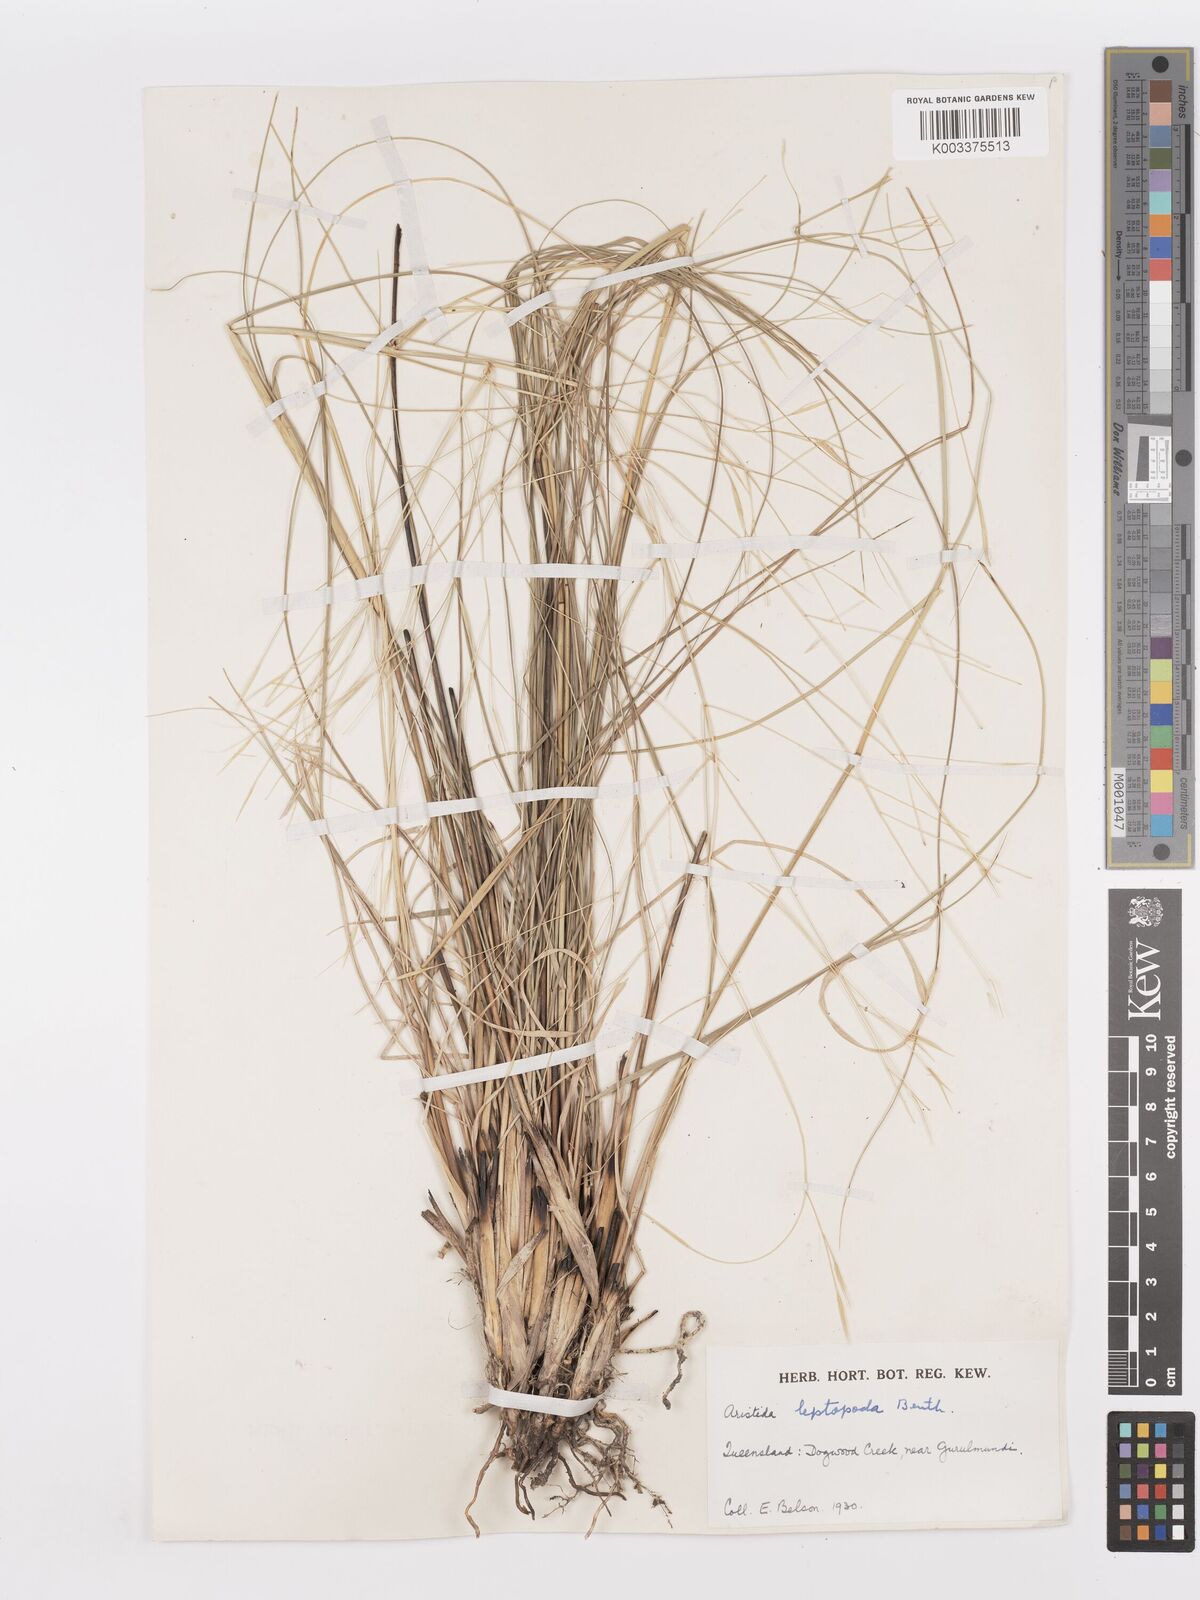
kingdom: Plantae
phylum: Tracheophyta
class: Liliopsida
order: Poales
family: Poaceae
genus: Aristida
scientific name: Aristida leptopoda
